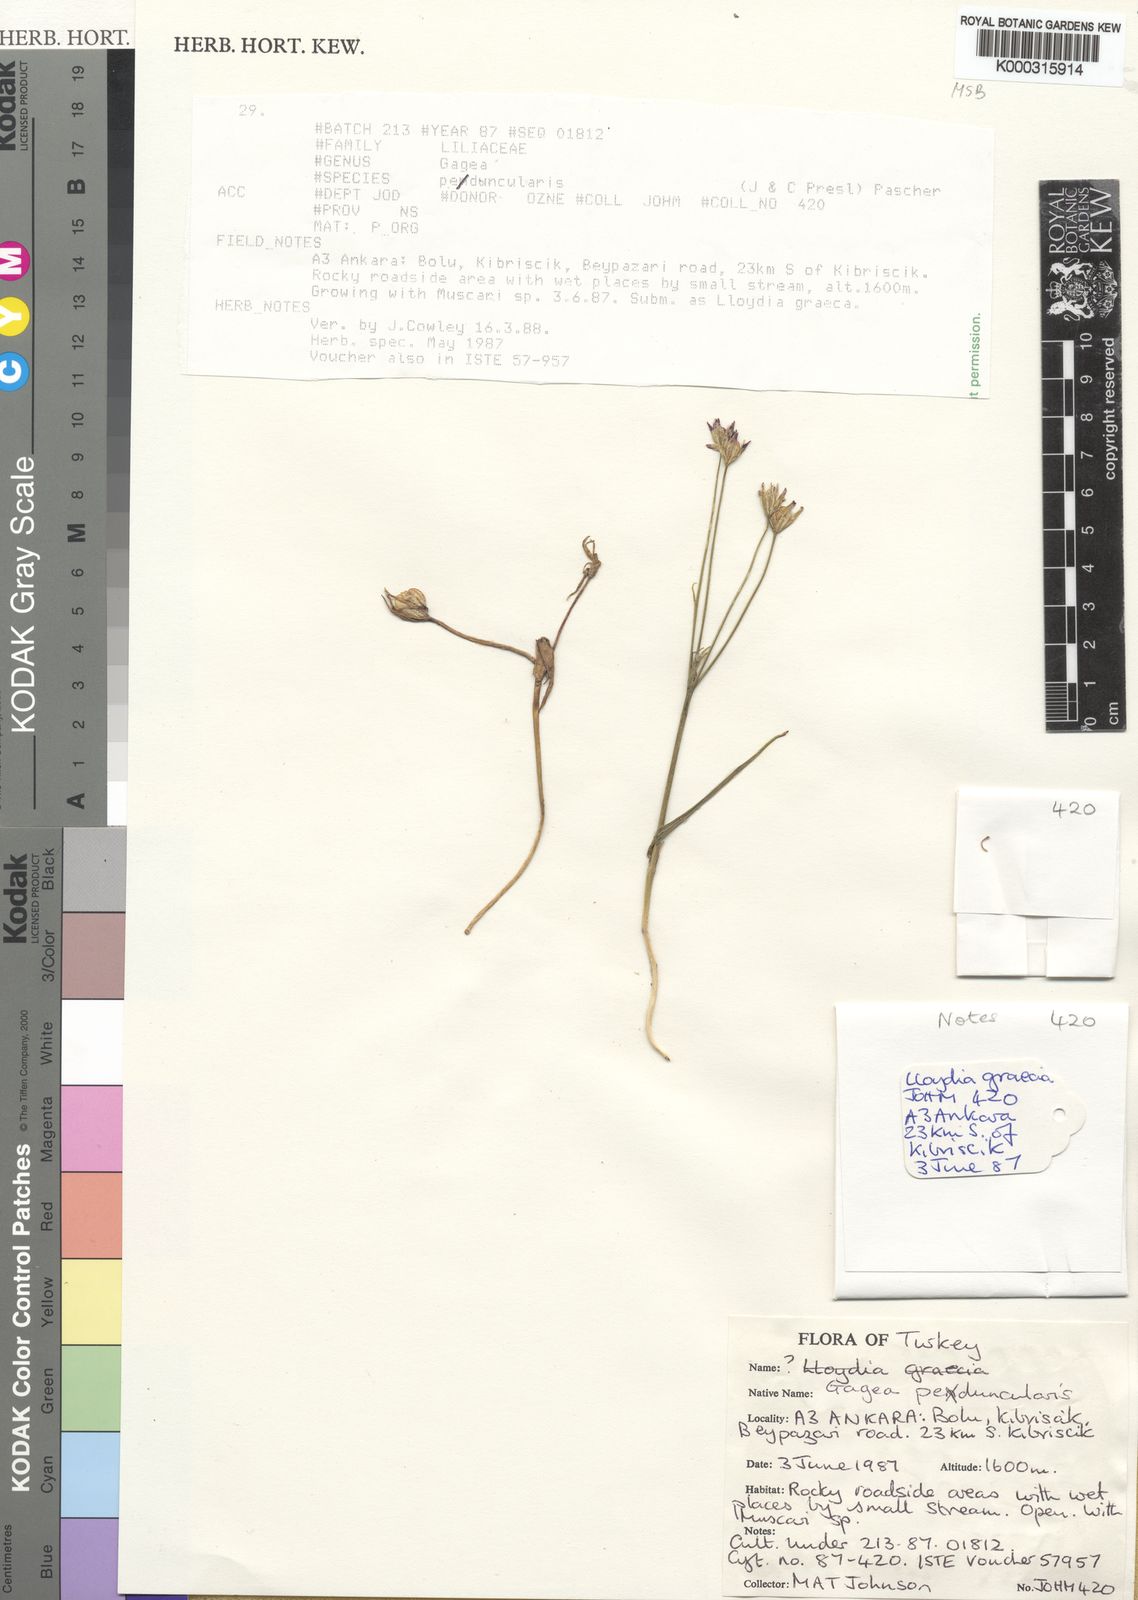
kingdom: Plantae
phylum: Tracheophyta
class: Liliopsida
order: Liliales
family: Liliaceae
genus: Gagea
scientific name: Gagea peduncularis
